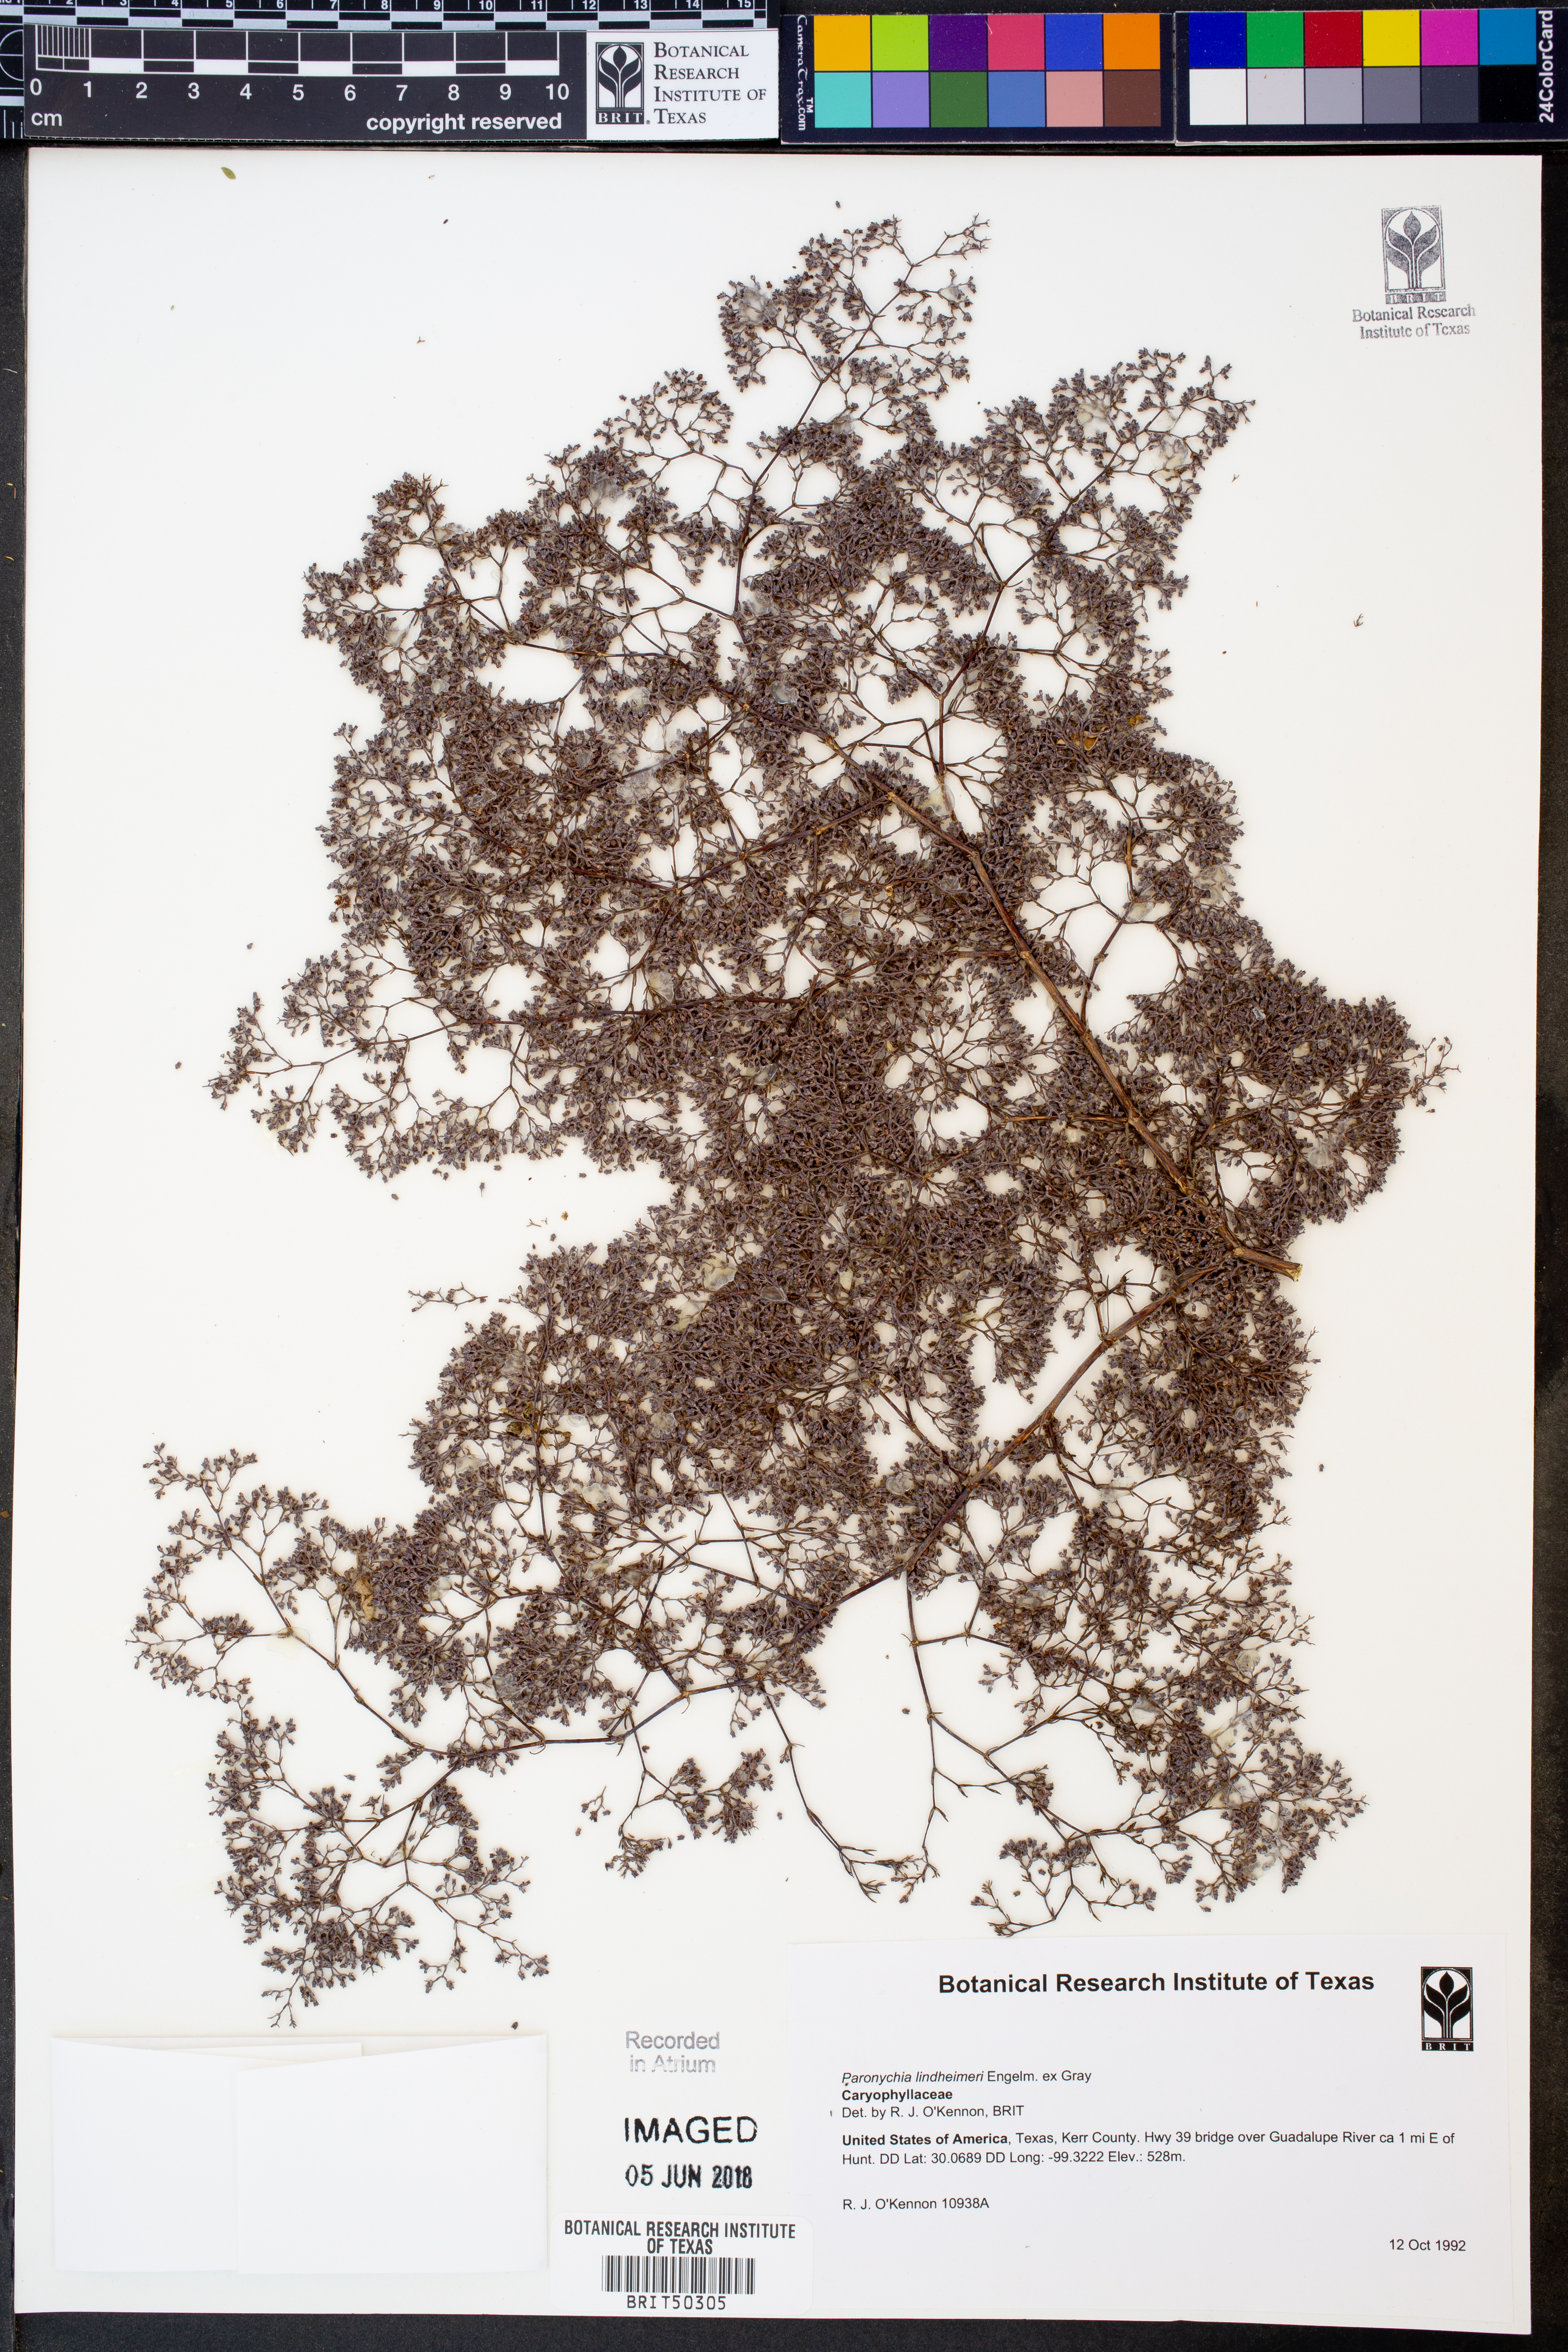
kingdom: Plantae
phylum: Tracheophyta
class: Magnoliopsida
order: Caryophyllales
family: Caryophyllaceae
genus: Paronychia
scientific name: Paronychia lindheimeri
